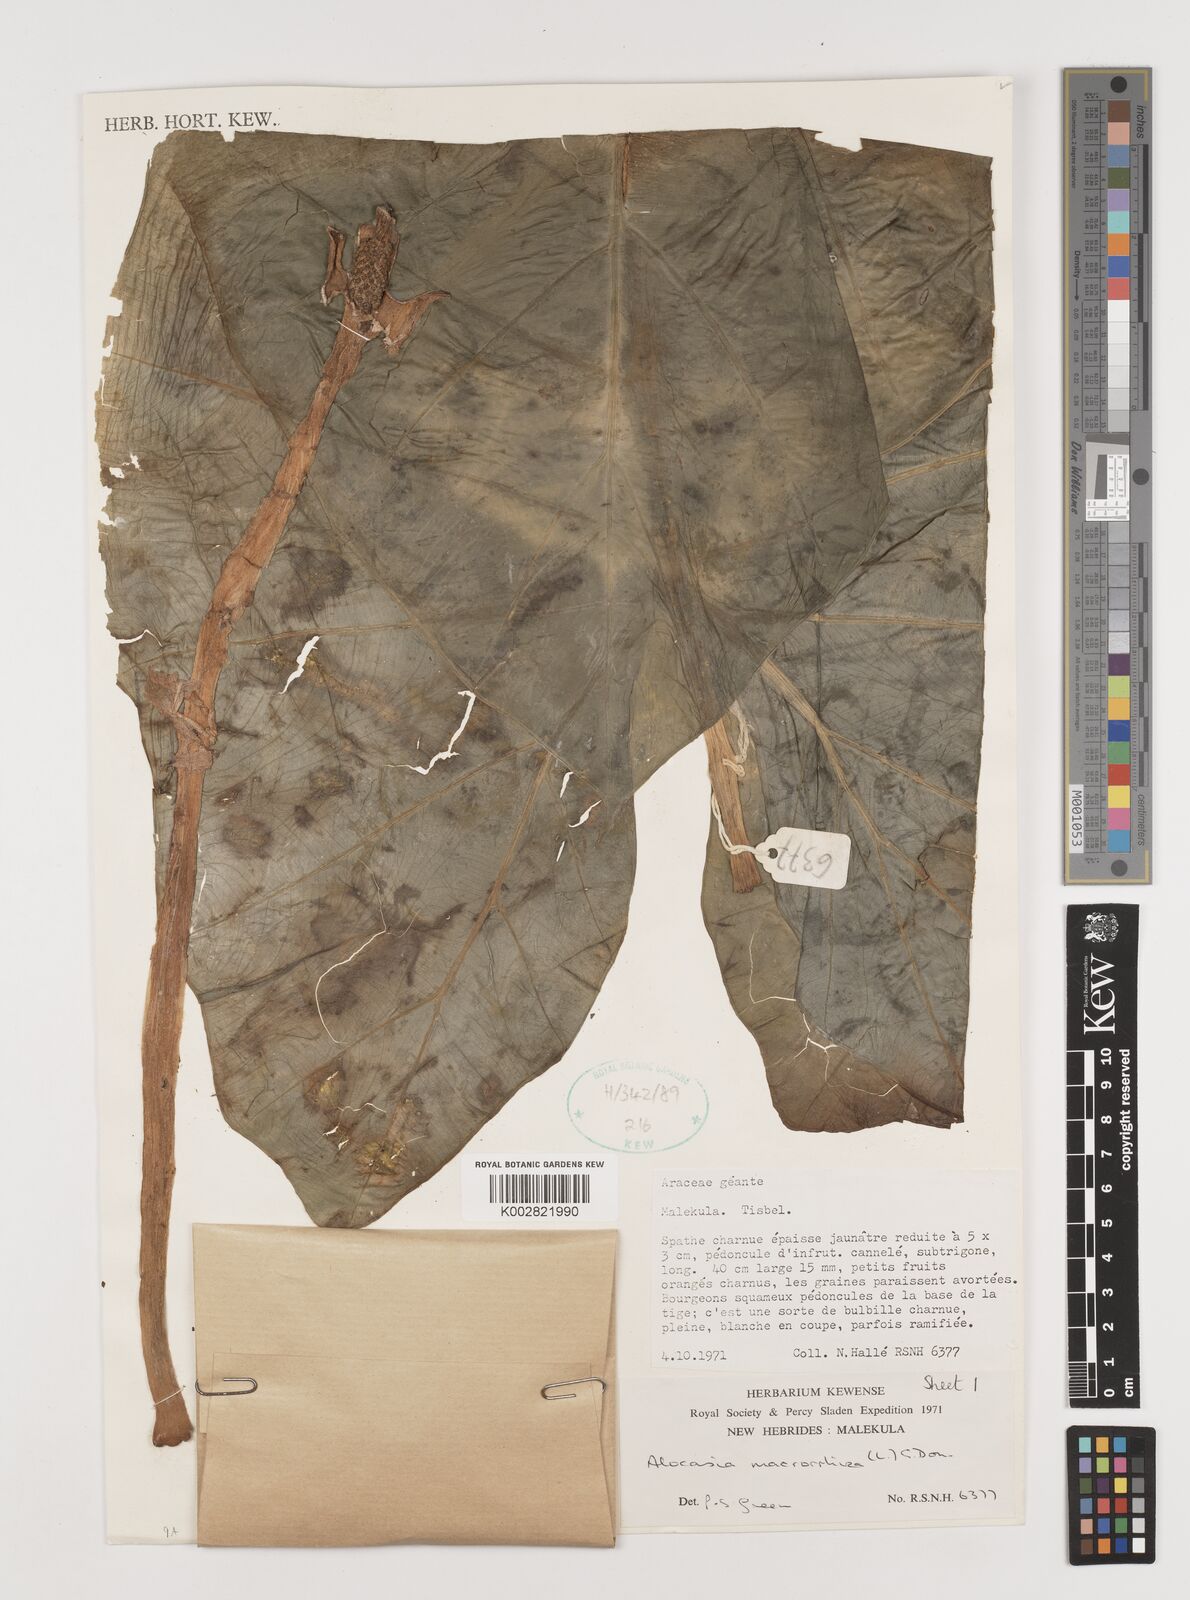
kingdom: Plantae
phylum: Tracheophyta
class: Liliopsida
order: Alismatales
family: Araceae
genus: Alocasia
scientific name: Alocasia macrorrhizos
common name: Giant taro
